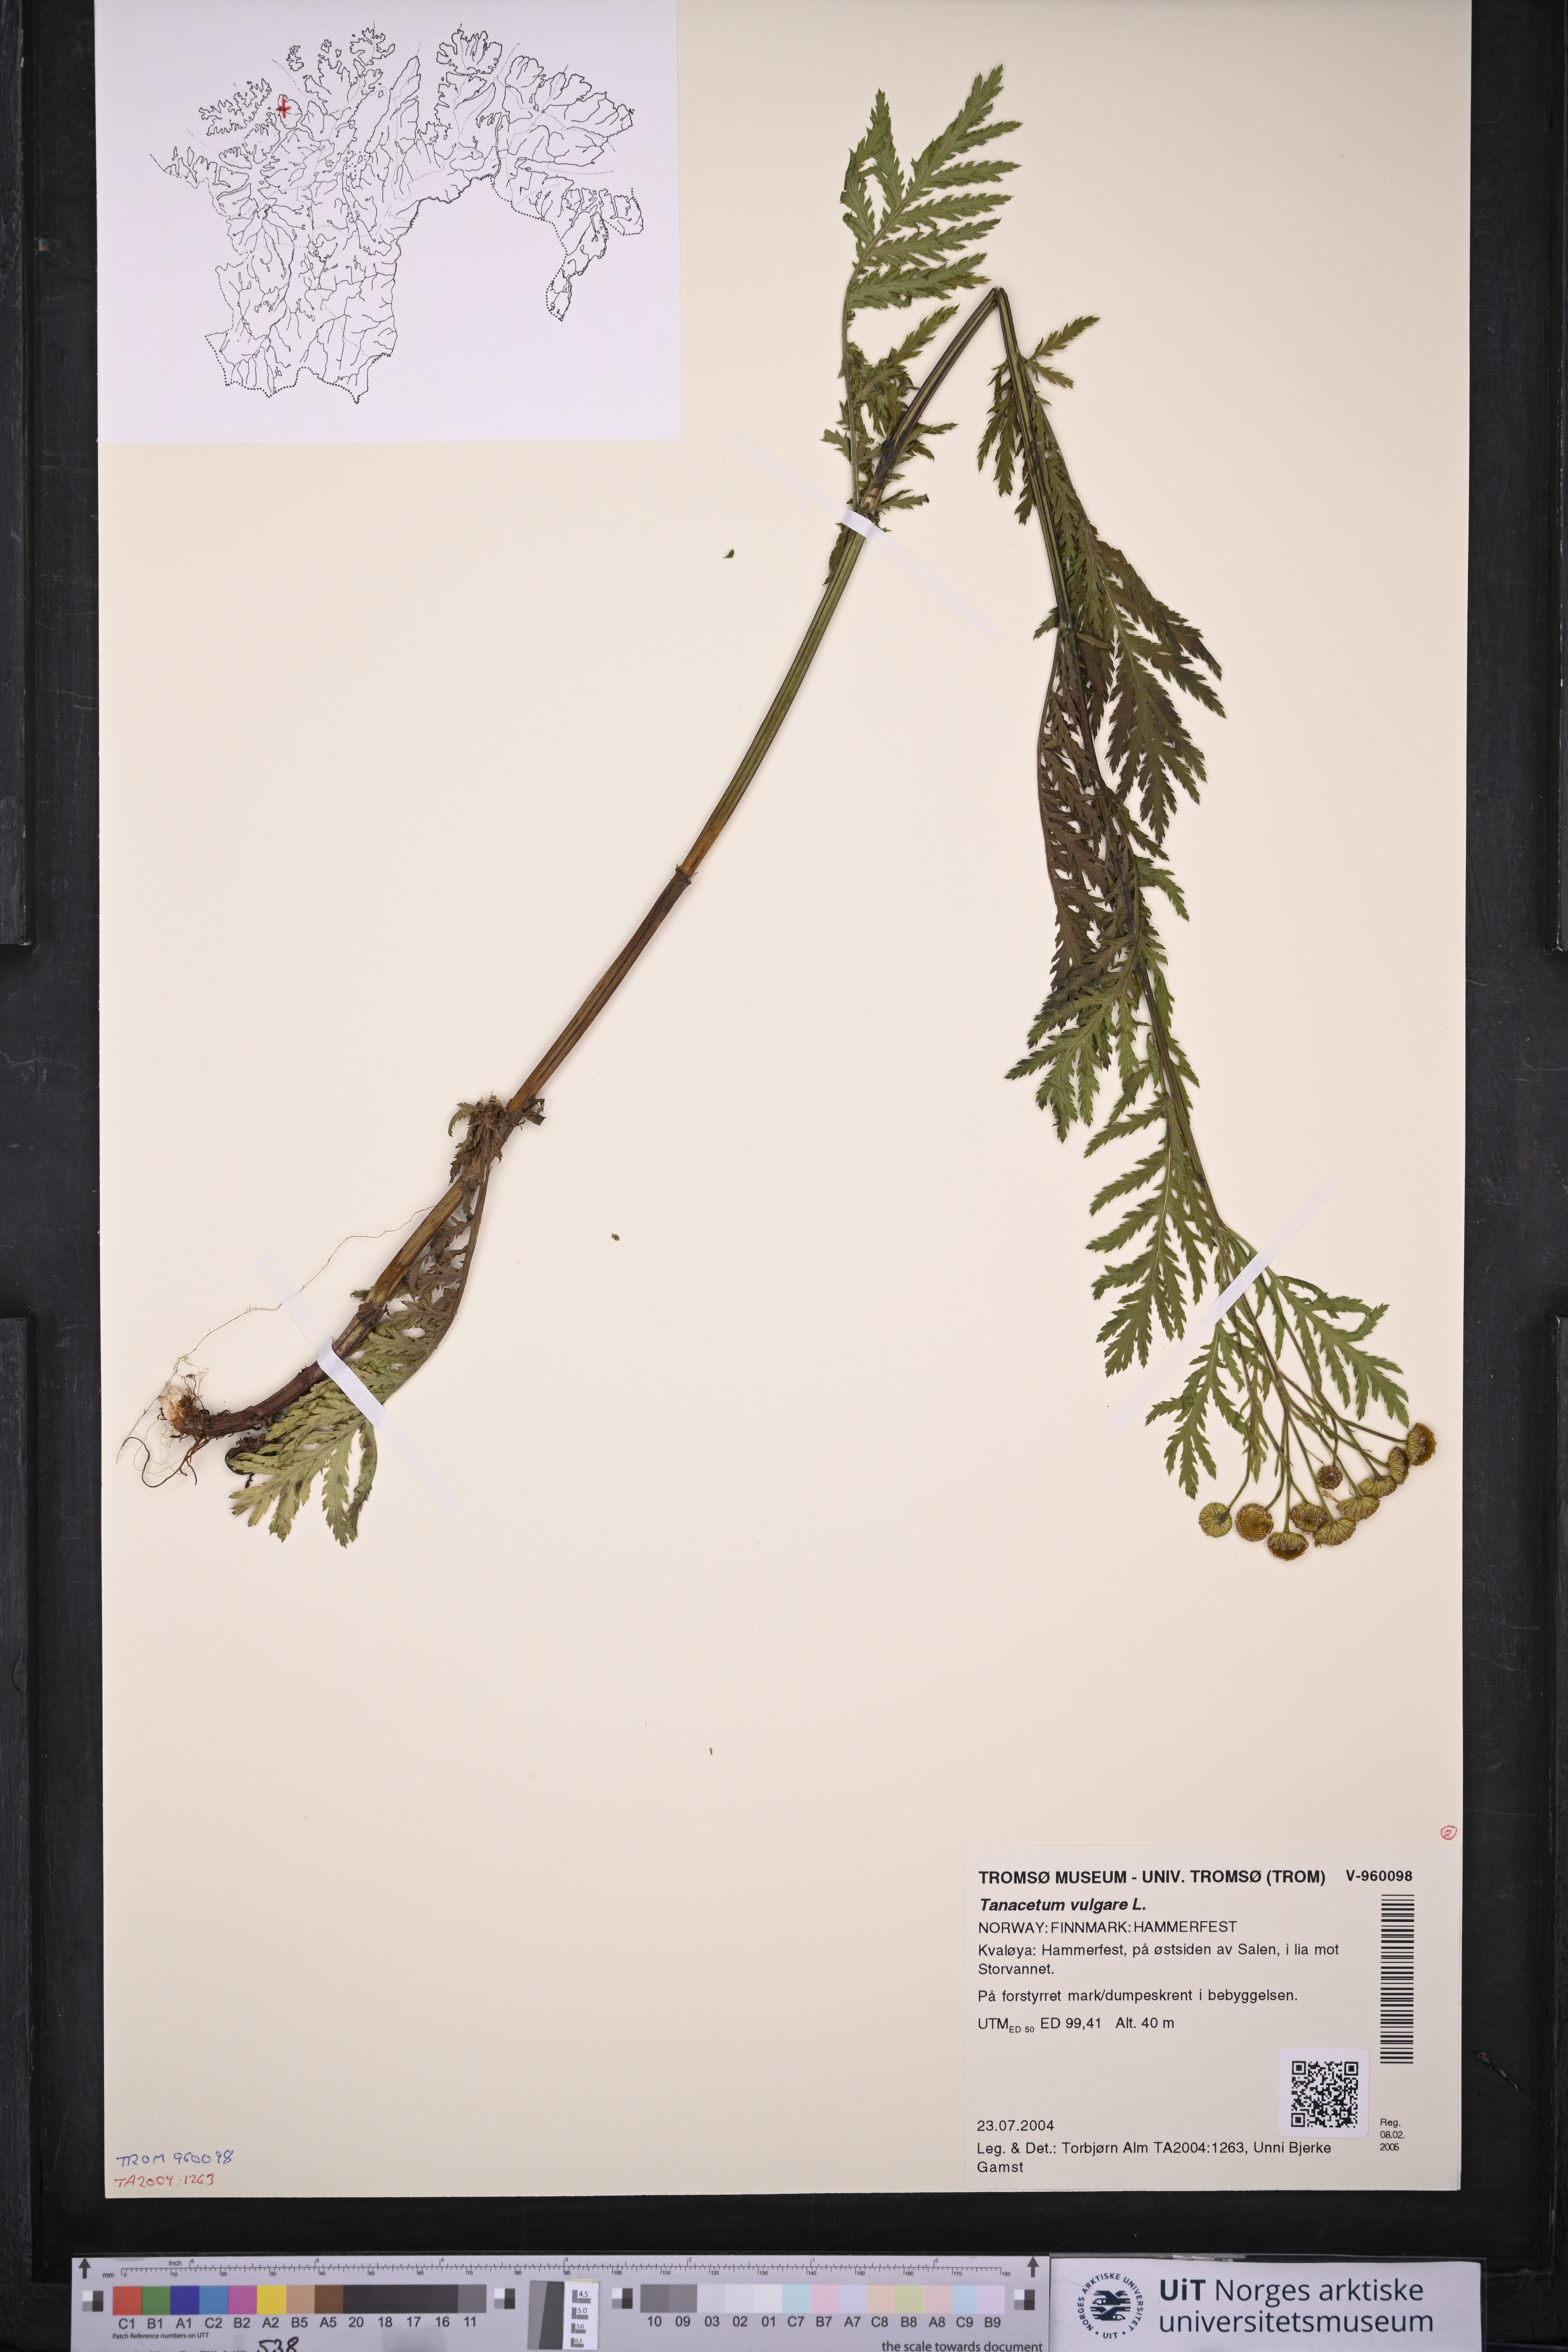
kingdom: Plantae
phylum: Tracheophyta
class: Magnoliopsida
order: Asterales
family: Asteraceae
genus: Tanacetum
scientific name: Tanacetum vulgare
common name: Common tansy
